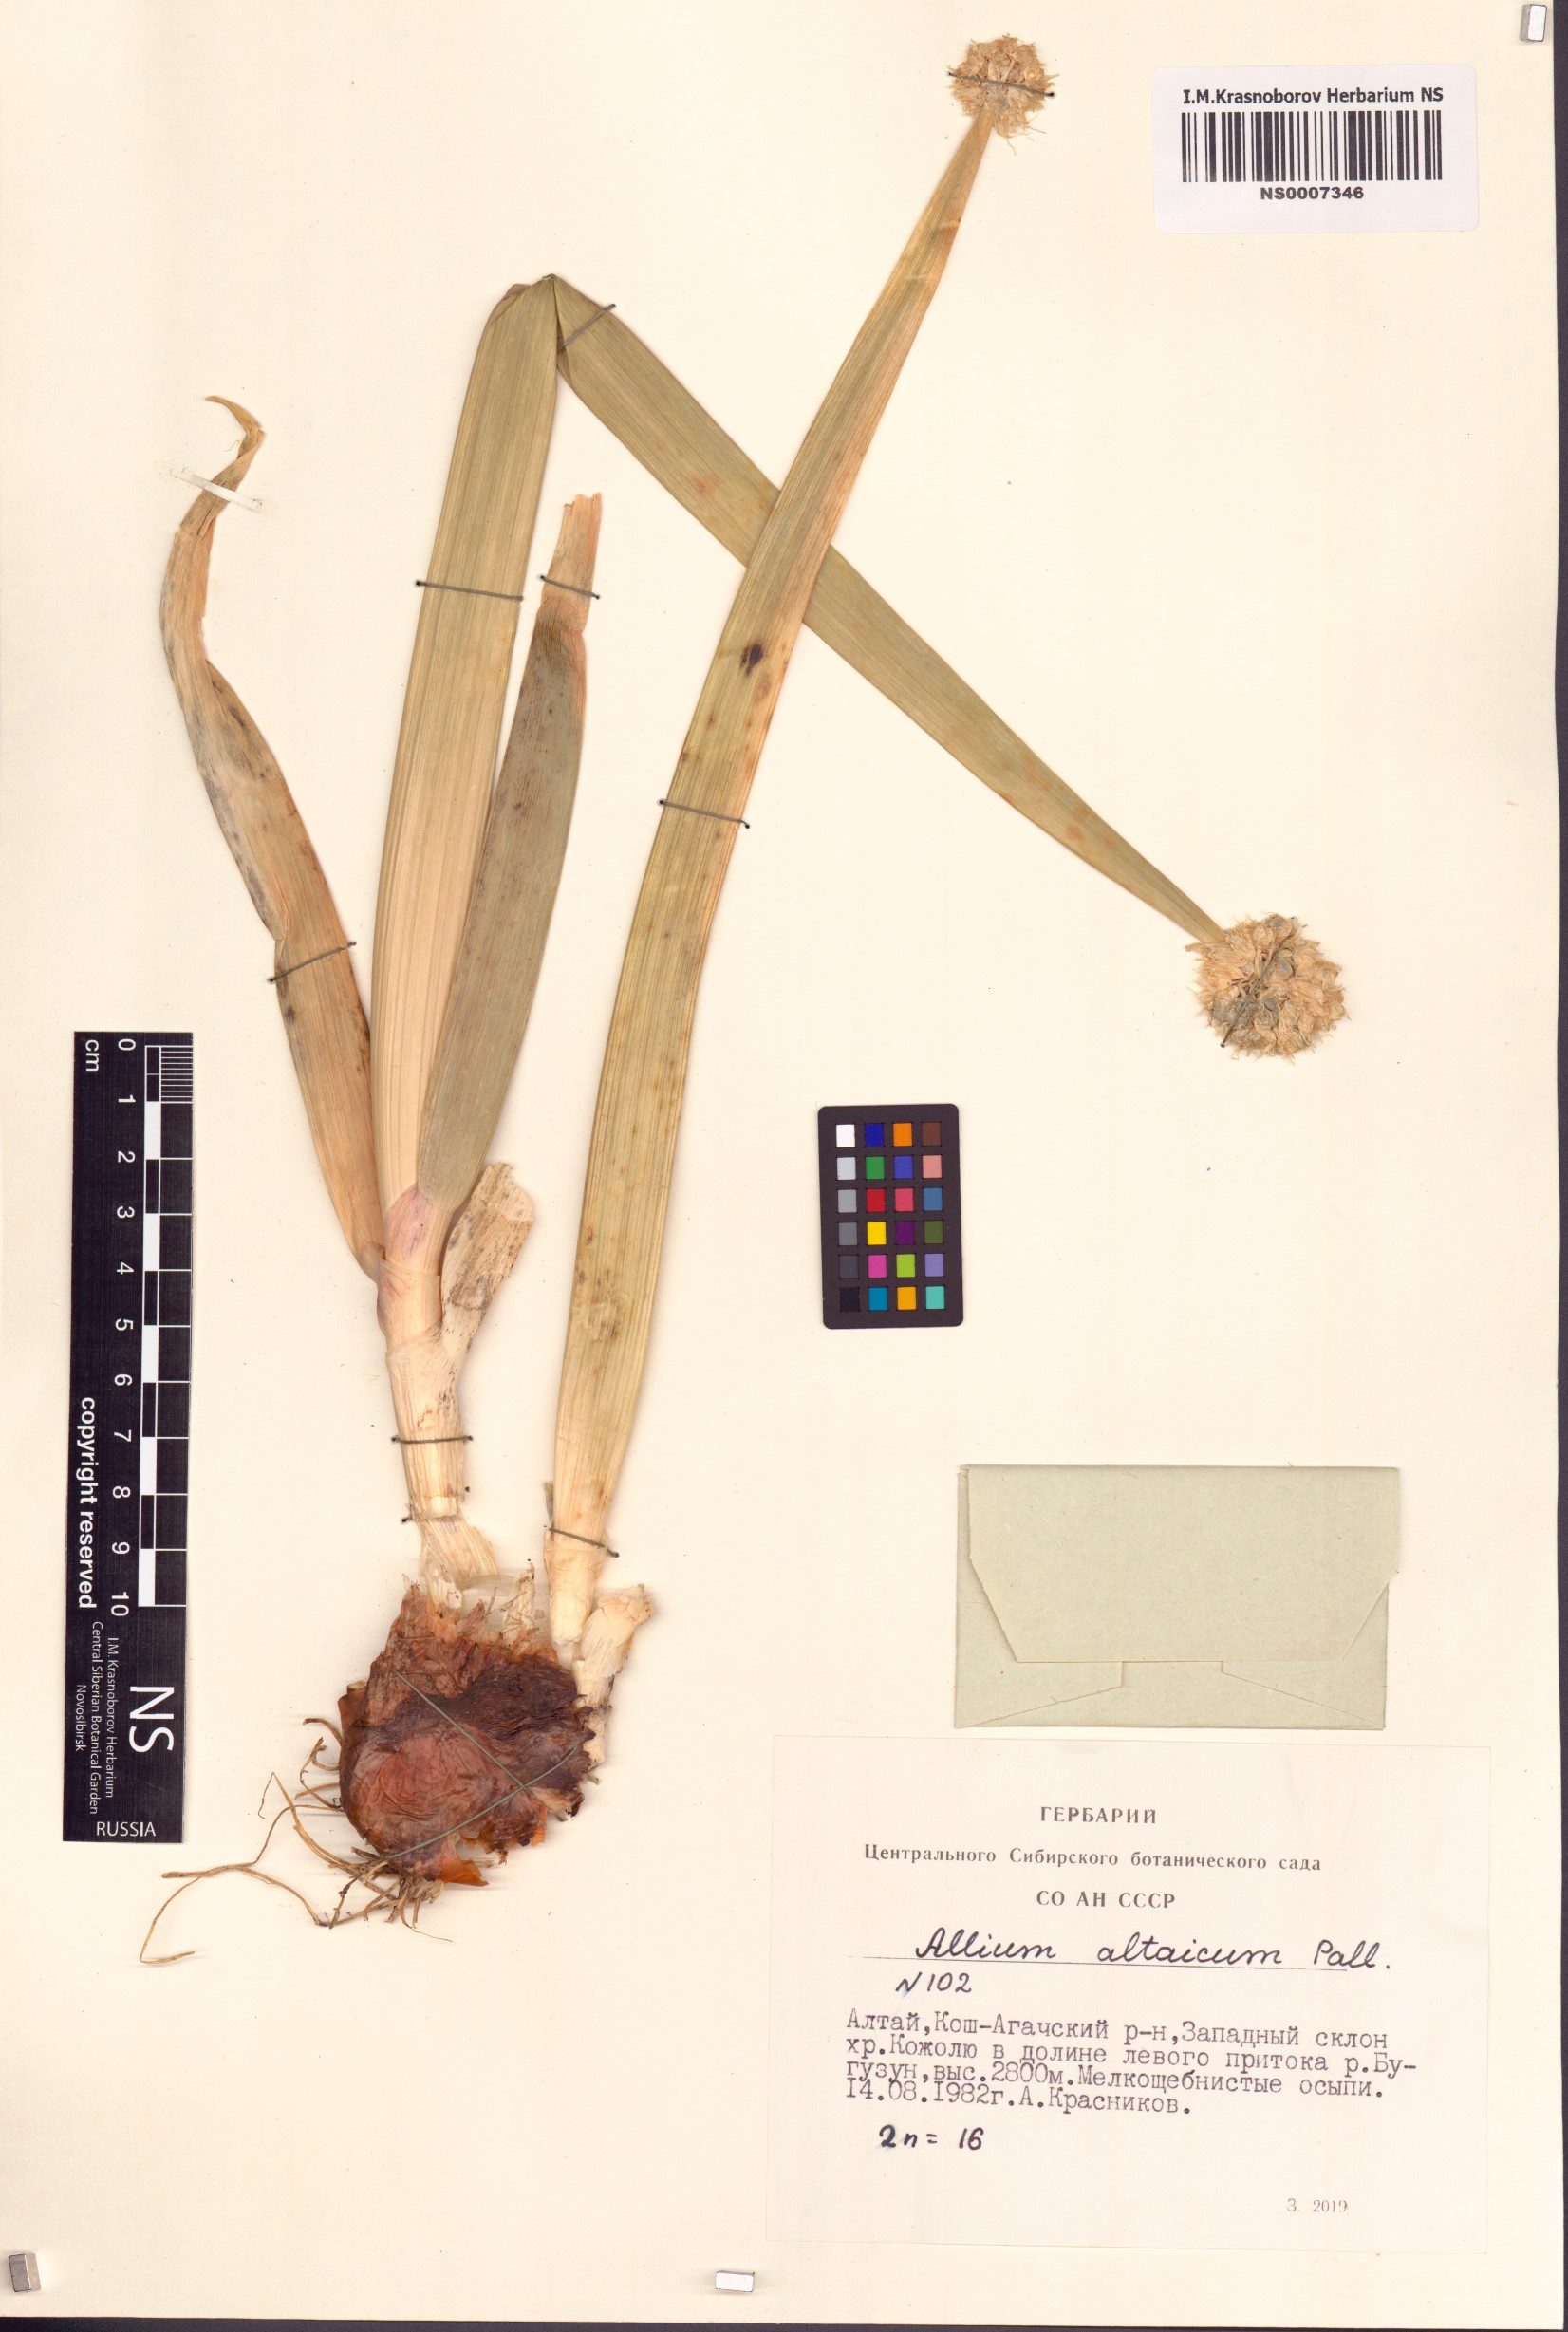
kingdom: Plantae
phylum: Tracheophyta
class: Liliopsida
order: Asparagales
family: Amaryllidaceae
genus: Allium
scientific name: Allium altaicum
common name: Altai onion
